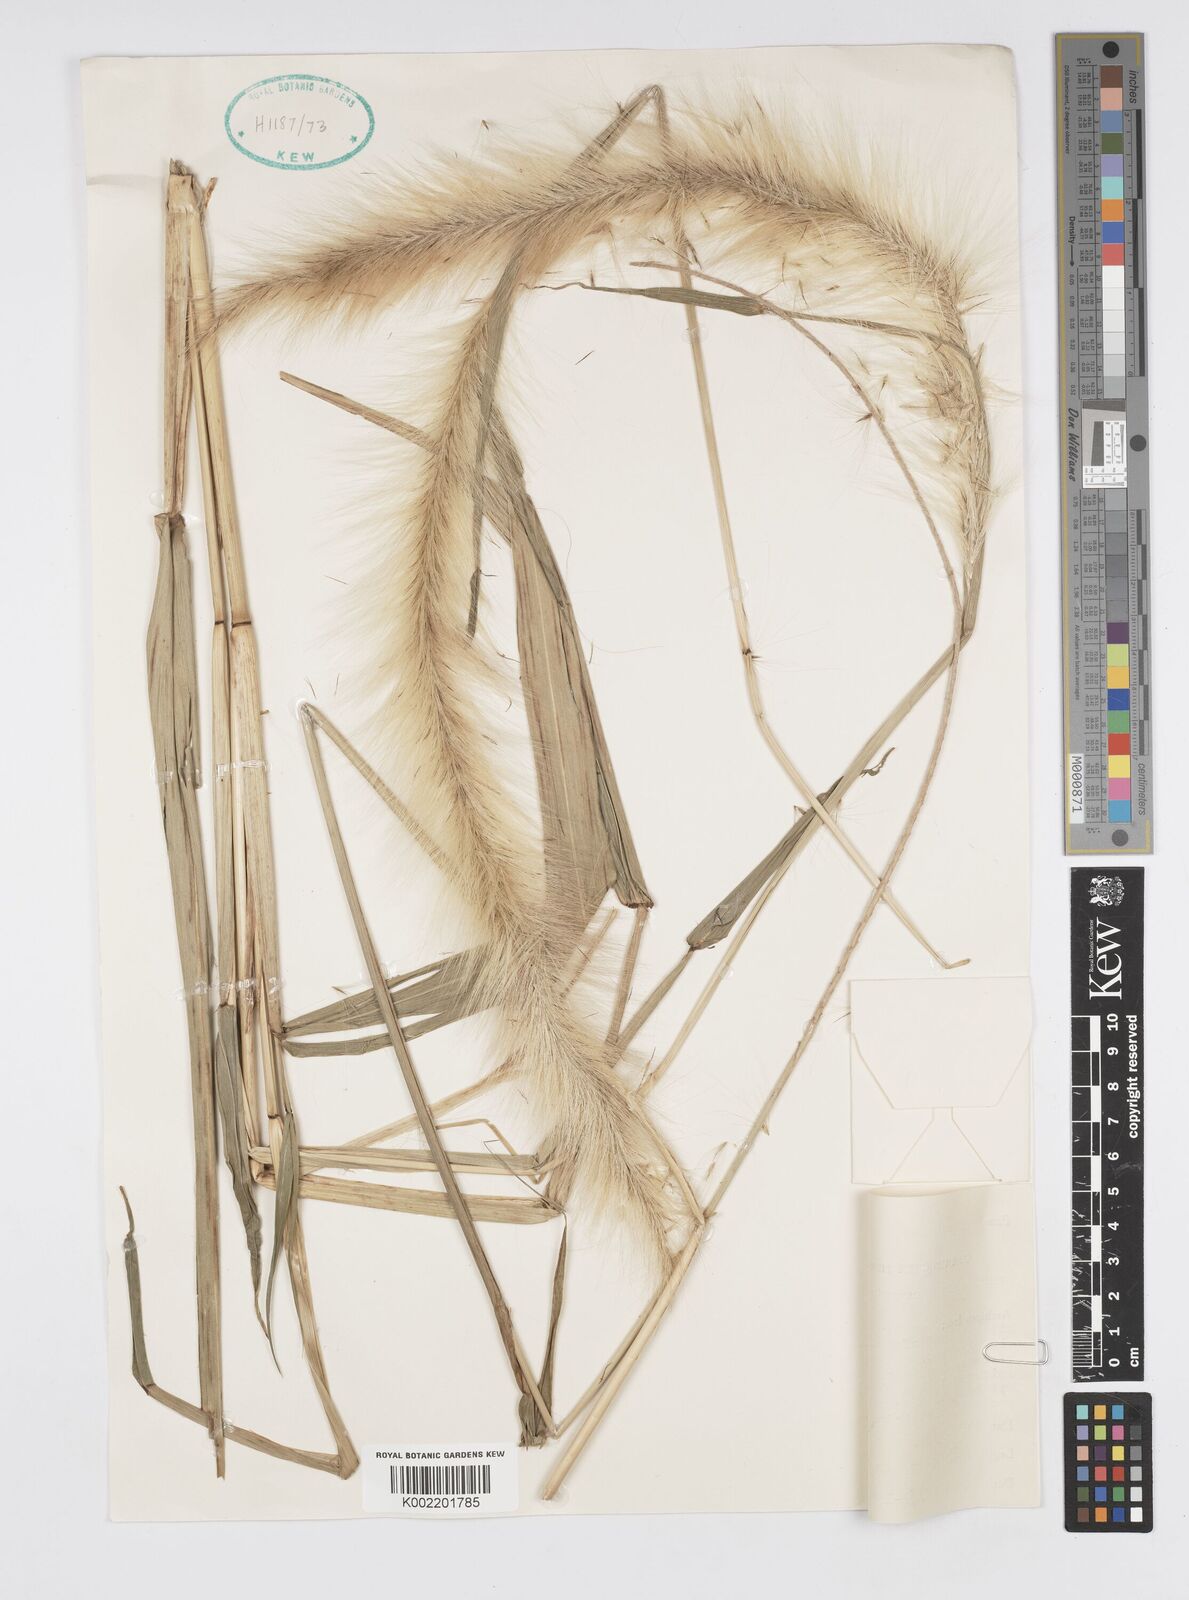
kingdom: Plantae
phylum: Tracheophyta
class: Liliopsida
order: Poales
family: Poaceae
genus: Cenchrus
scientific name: Cenchrus purpureus
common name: Elephant grass
